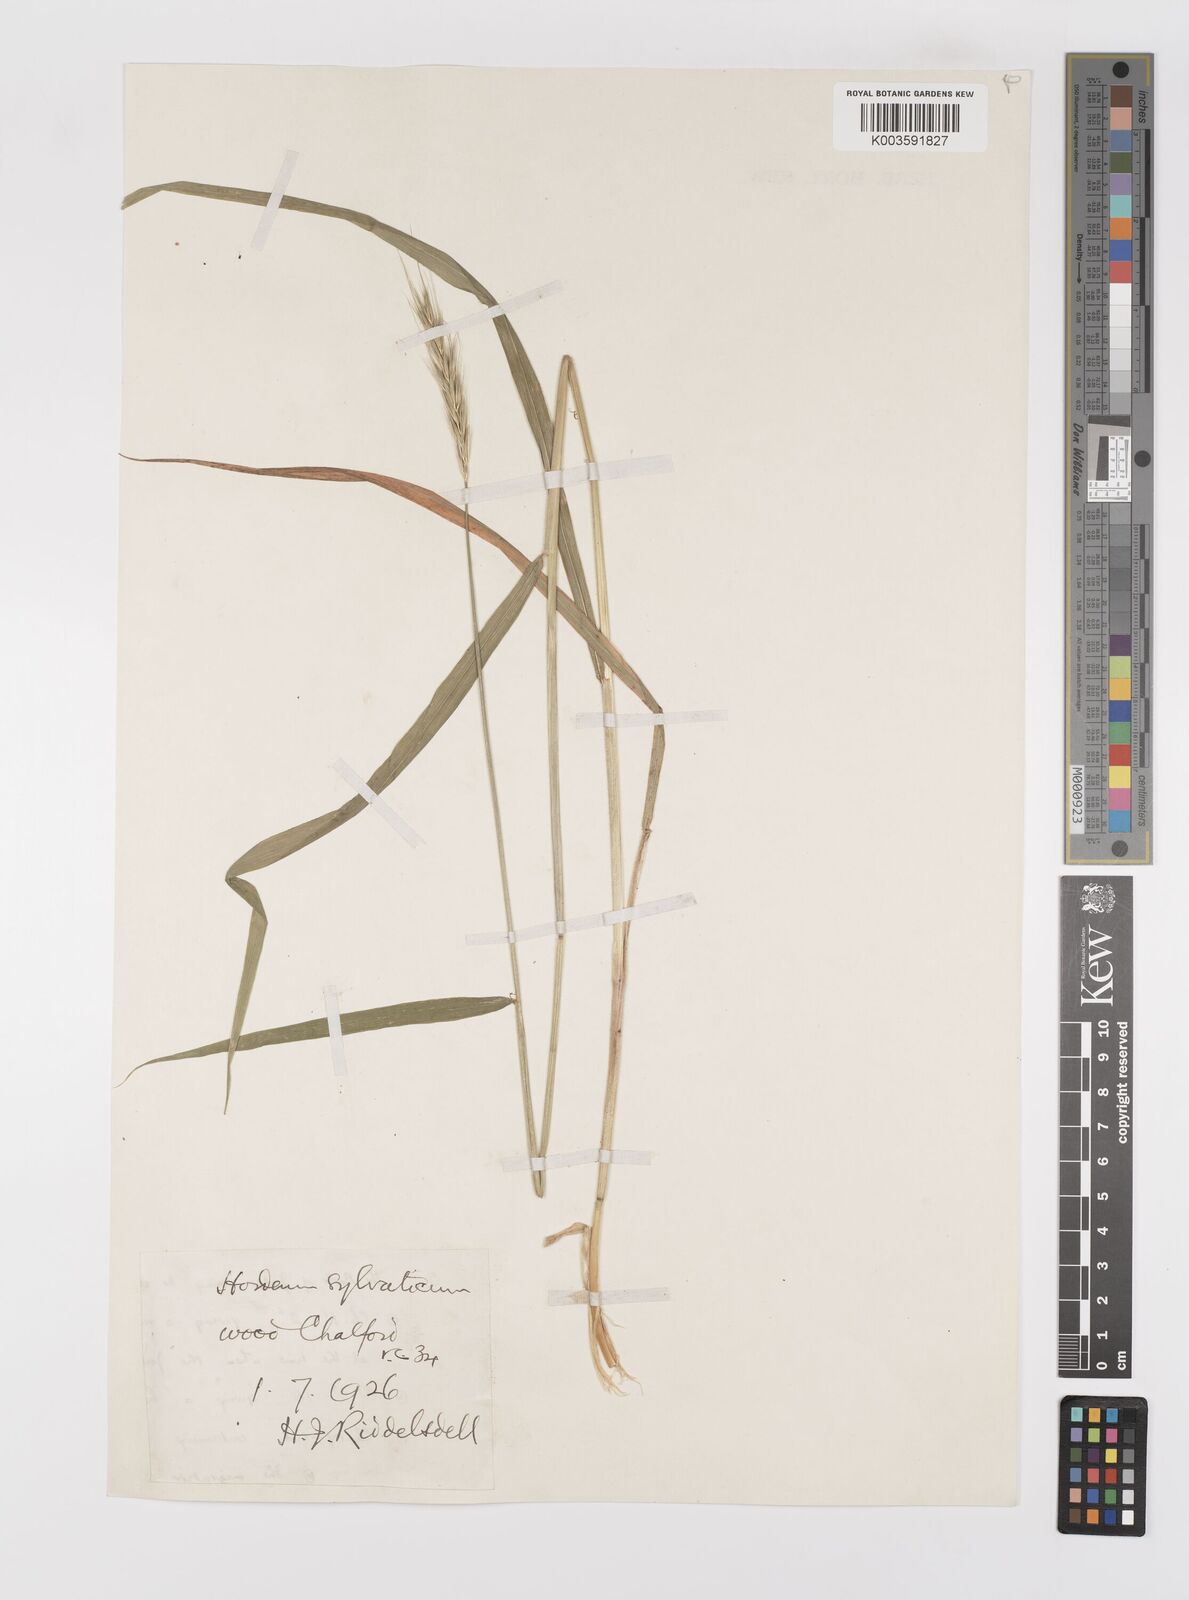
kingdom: Plantae
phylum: Tracheophyta
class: Liliopsida
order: Poales
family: Poaceae
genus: Hordelymus
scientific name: Hordelymus europaeus
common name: Wood-barley
